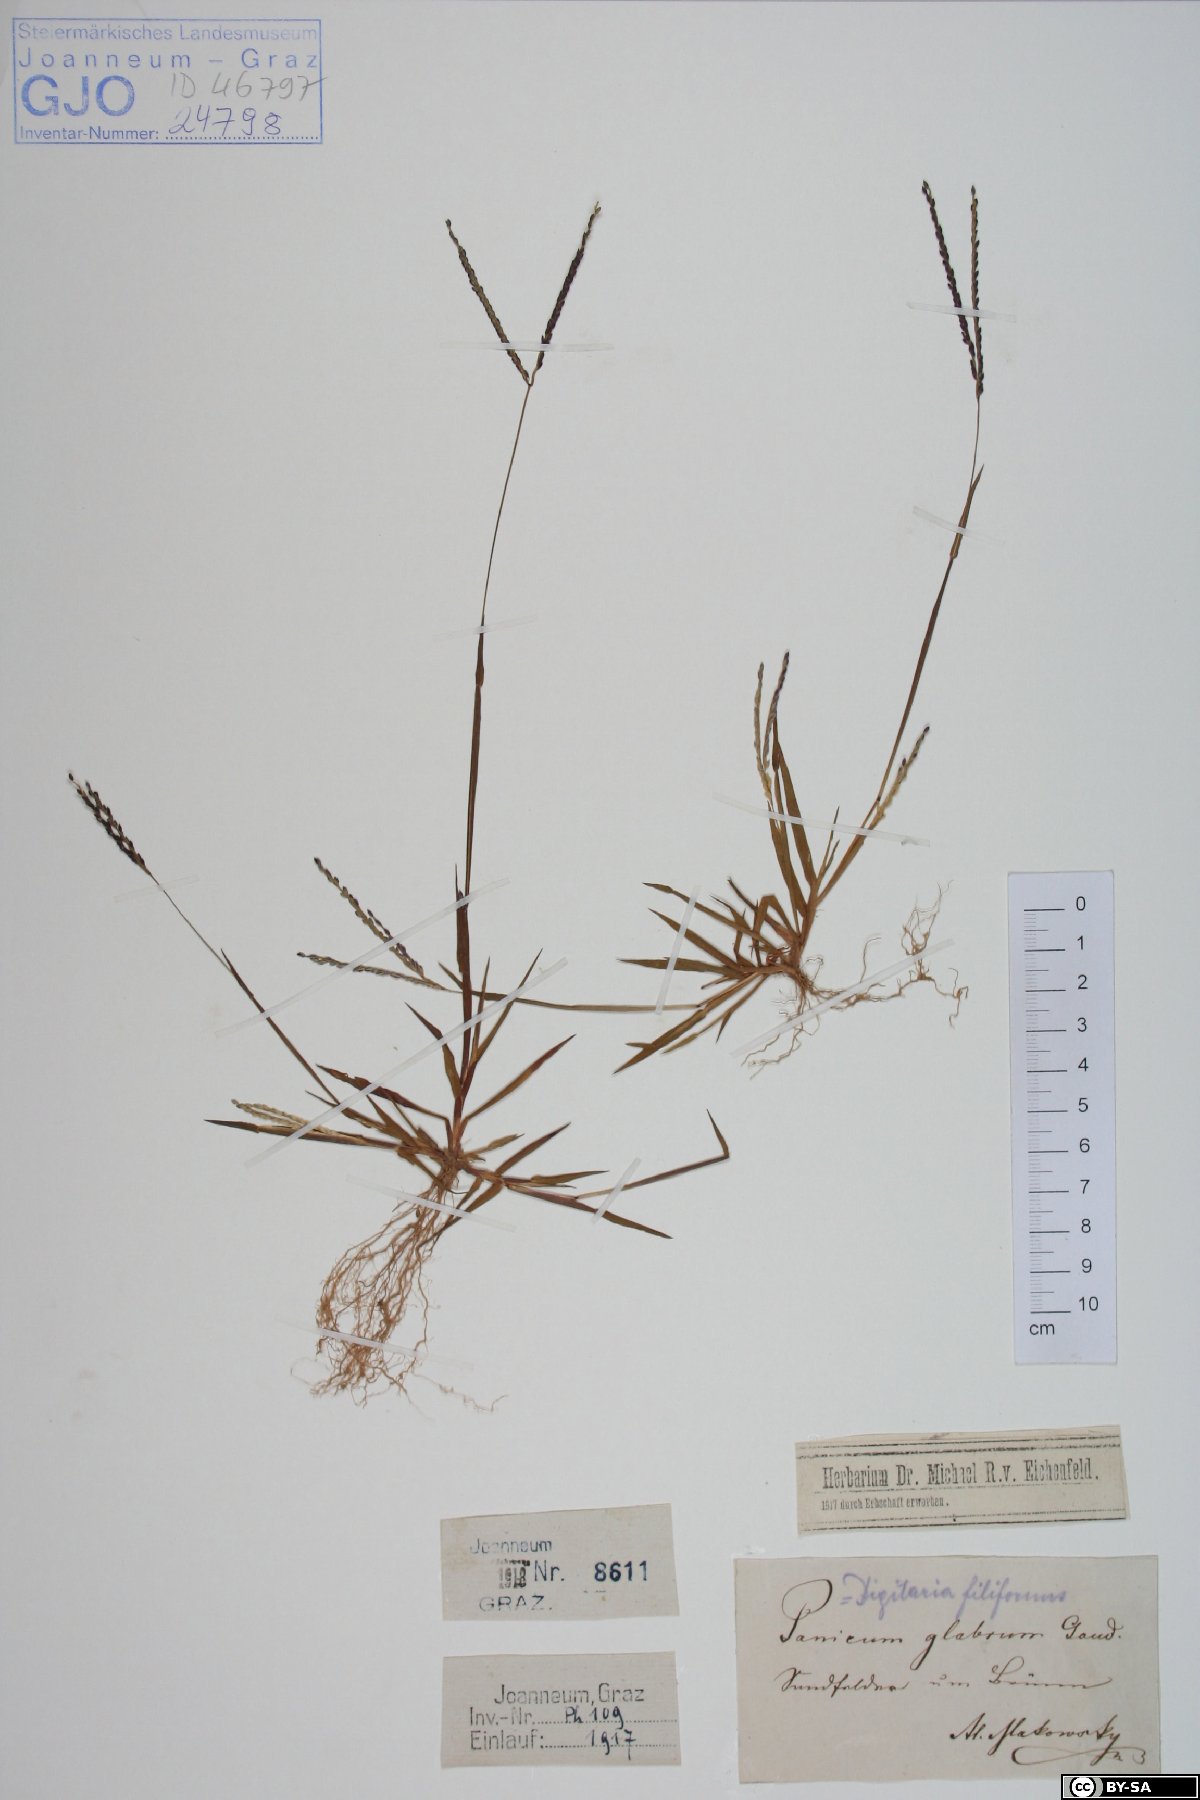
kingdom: Plantae
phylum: Tracheophyta
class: Liliopsida
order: Poales
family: Poaceae
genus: Digitaria
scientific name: Digitaria ischaemum
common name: Smooth crabgrass
